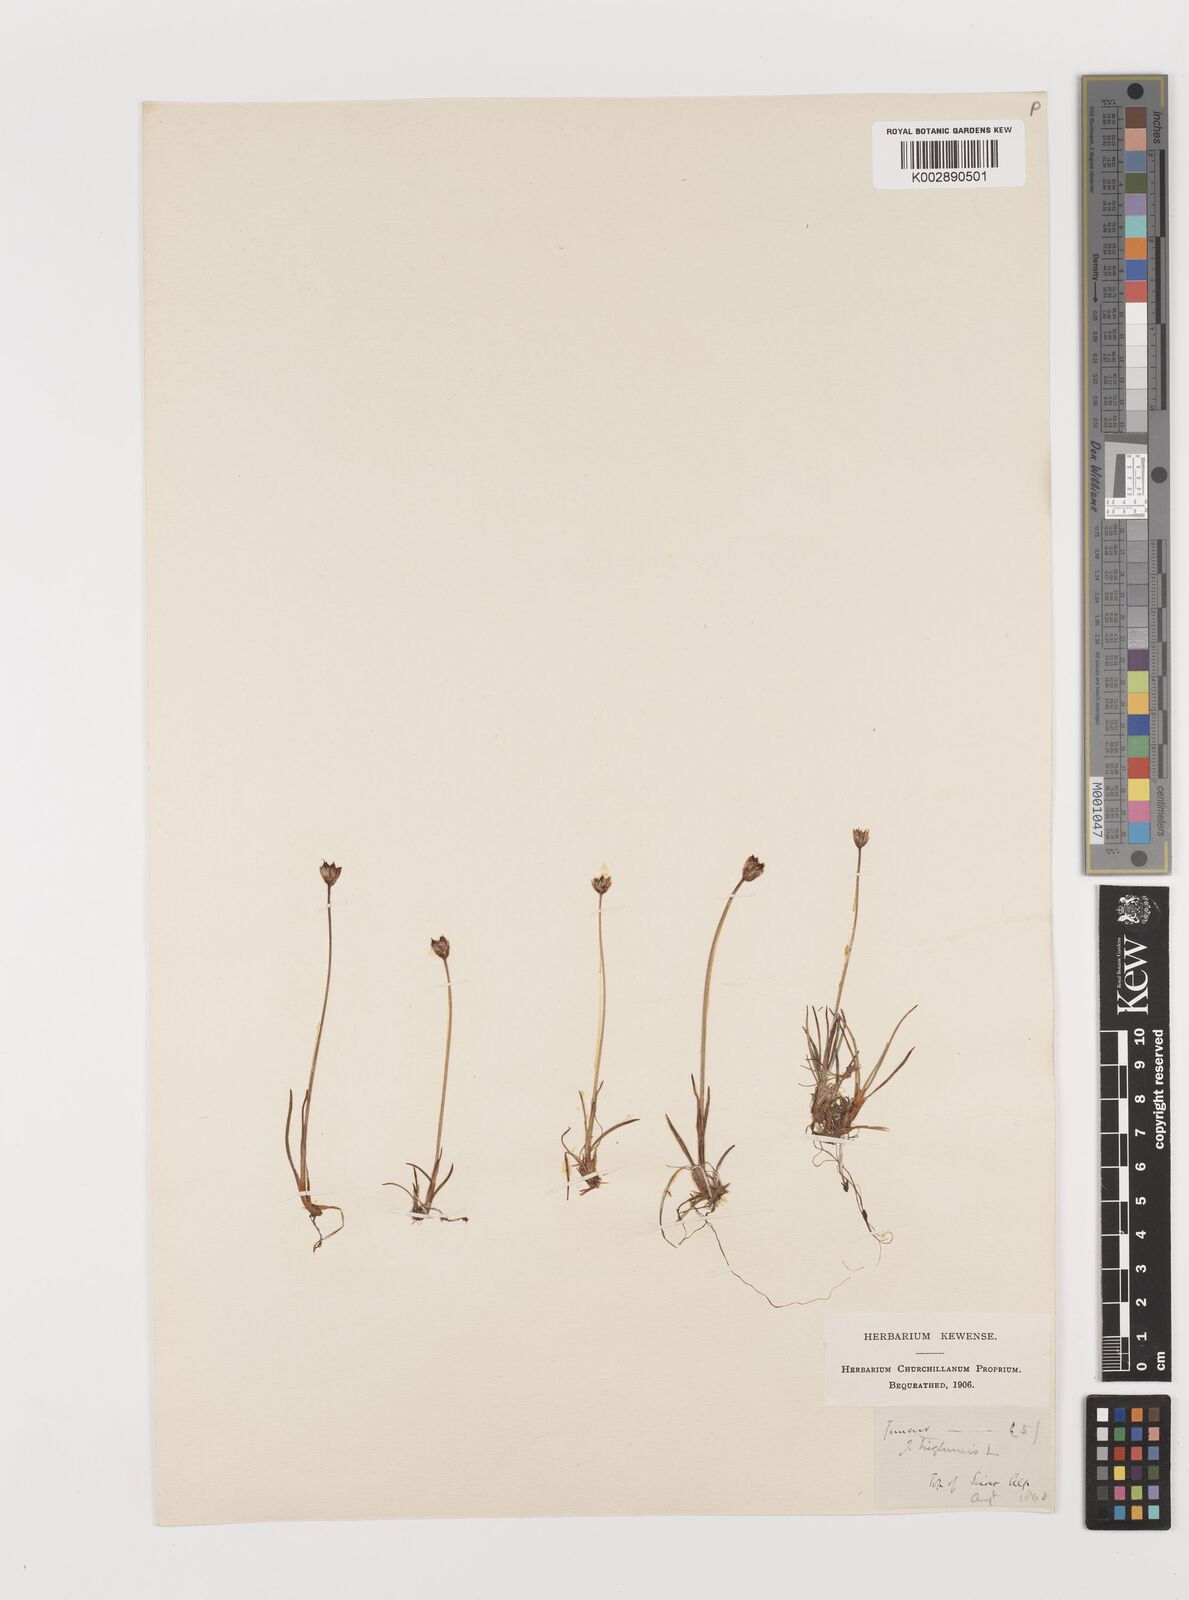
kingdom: Plantae
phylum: Tracheophyta
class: Liliopsida
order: Poales
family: Juncaceae
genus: Juncus
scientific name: Juncus triglumis
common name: Three-flowered rush
